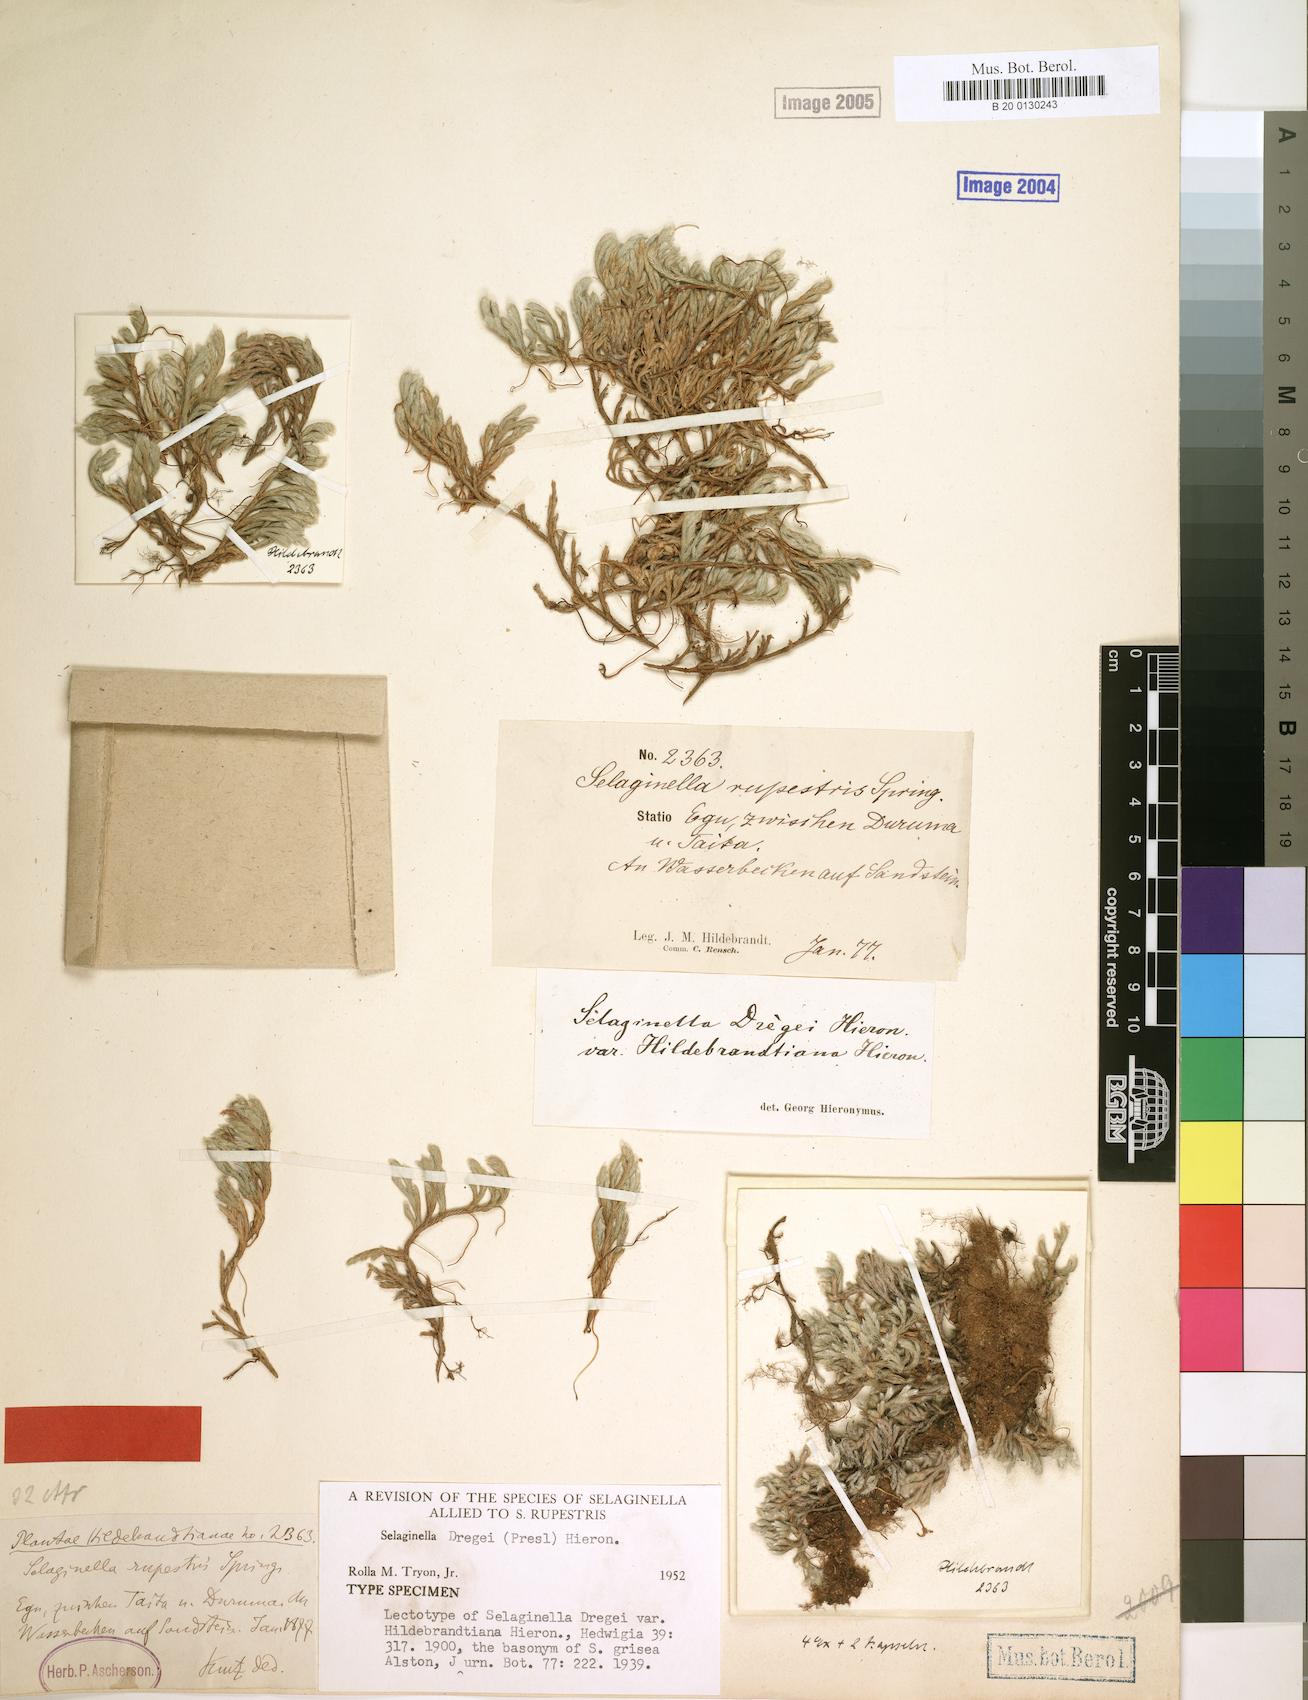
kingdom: Plantae
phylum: Tracheophyta
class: Lycopodiopsida
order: Selaginellales
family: Selaginellaceae
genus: Selaginella
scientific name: Selaginella dregei
